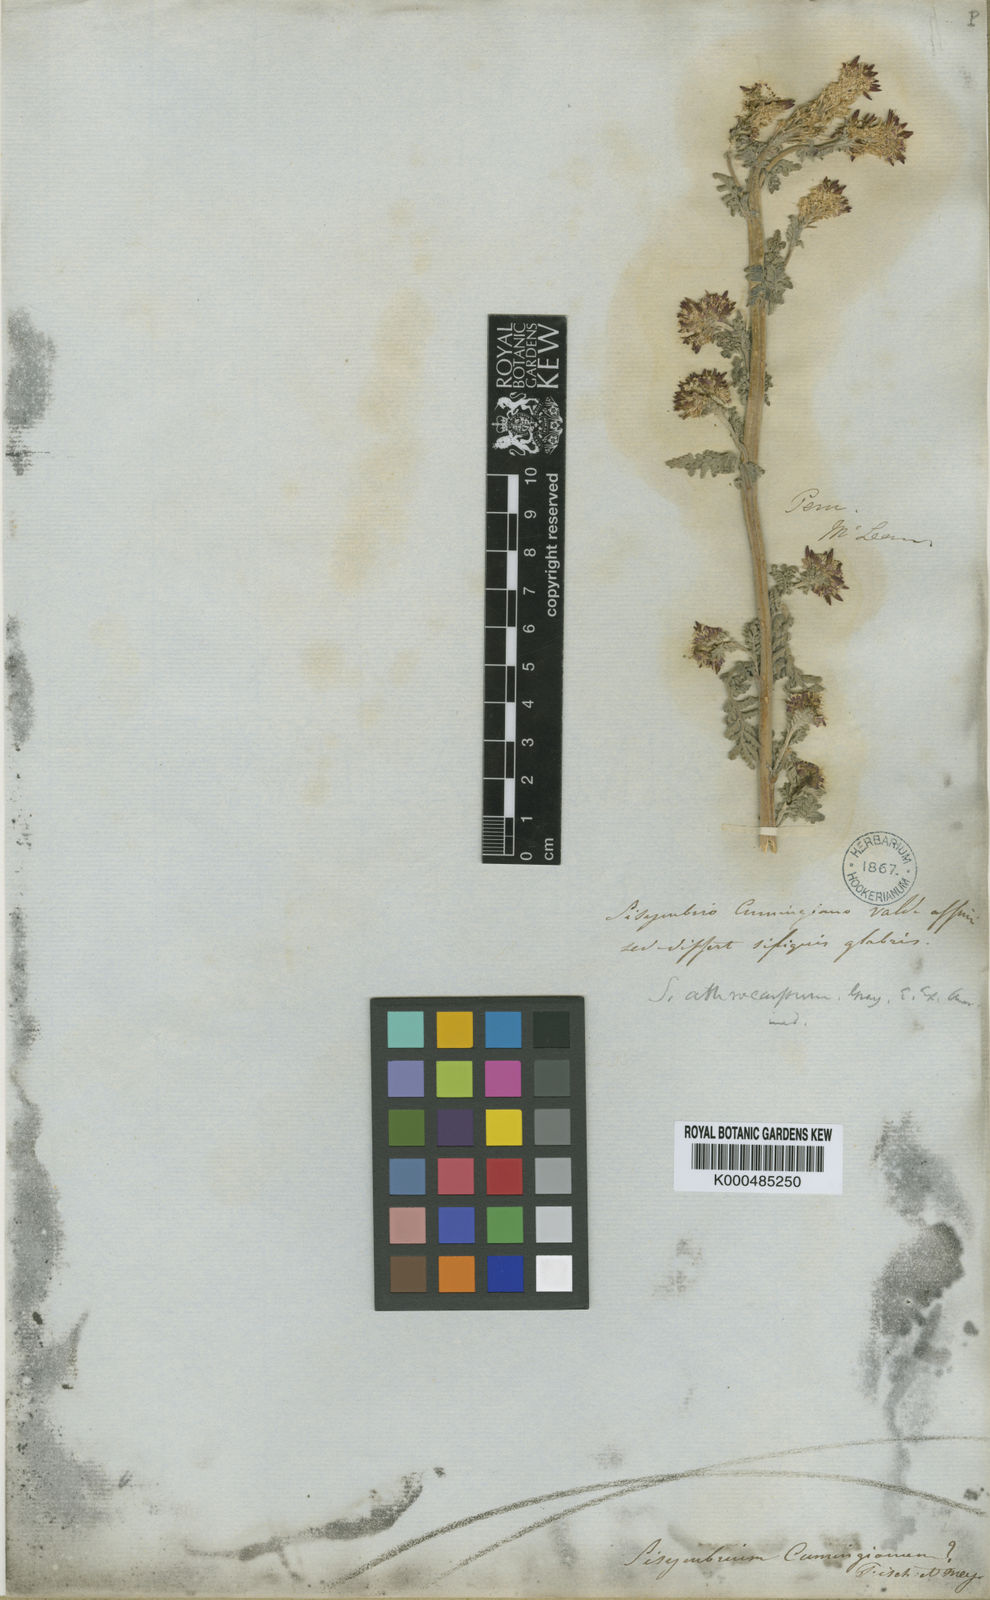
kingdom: Plantae
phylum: Tracheophyta
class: Magnoliopsida
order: Brassicales
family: Brassicaceae
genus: Descurainia
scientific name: Descurainia athrocarpa
